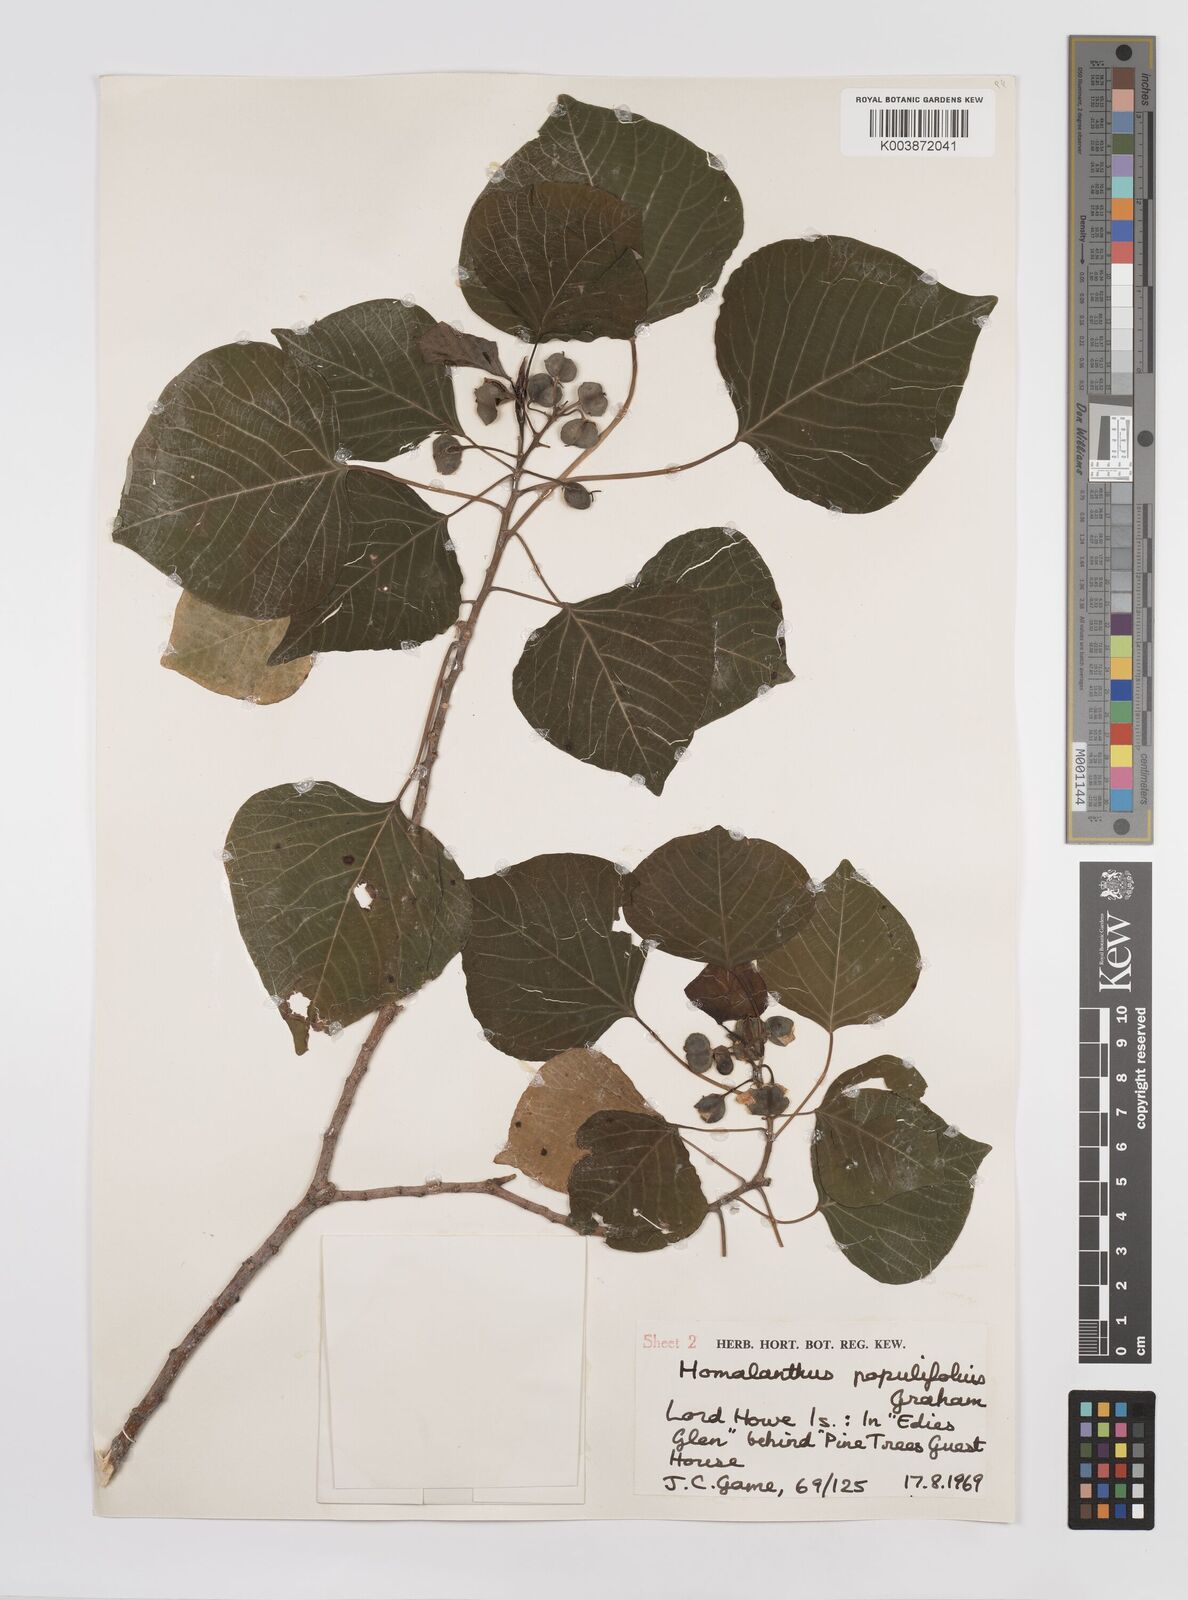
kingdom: Plantae
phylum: Tracheophyta
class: Magnoliopsida
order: Malpighiales
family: Euphorbiaceae
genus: Homalanthus
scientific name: Homalanthus populifolius
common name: Queensland poplar
